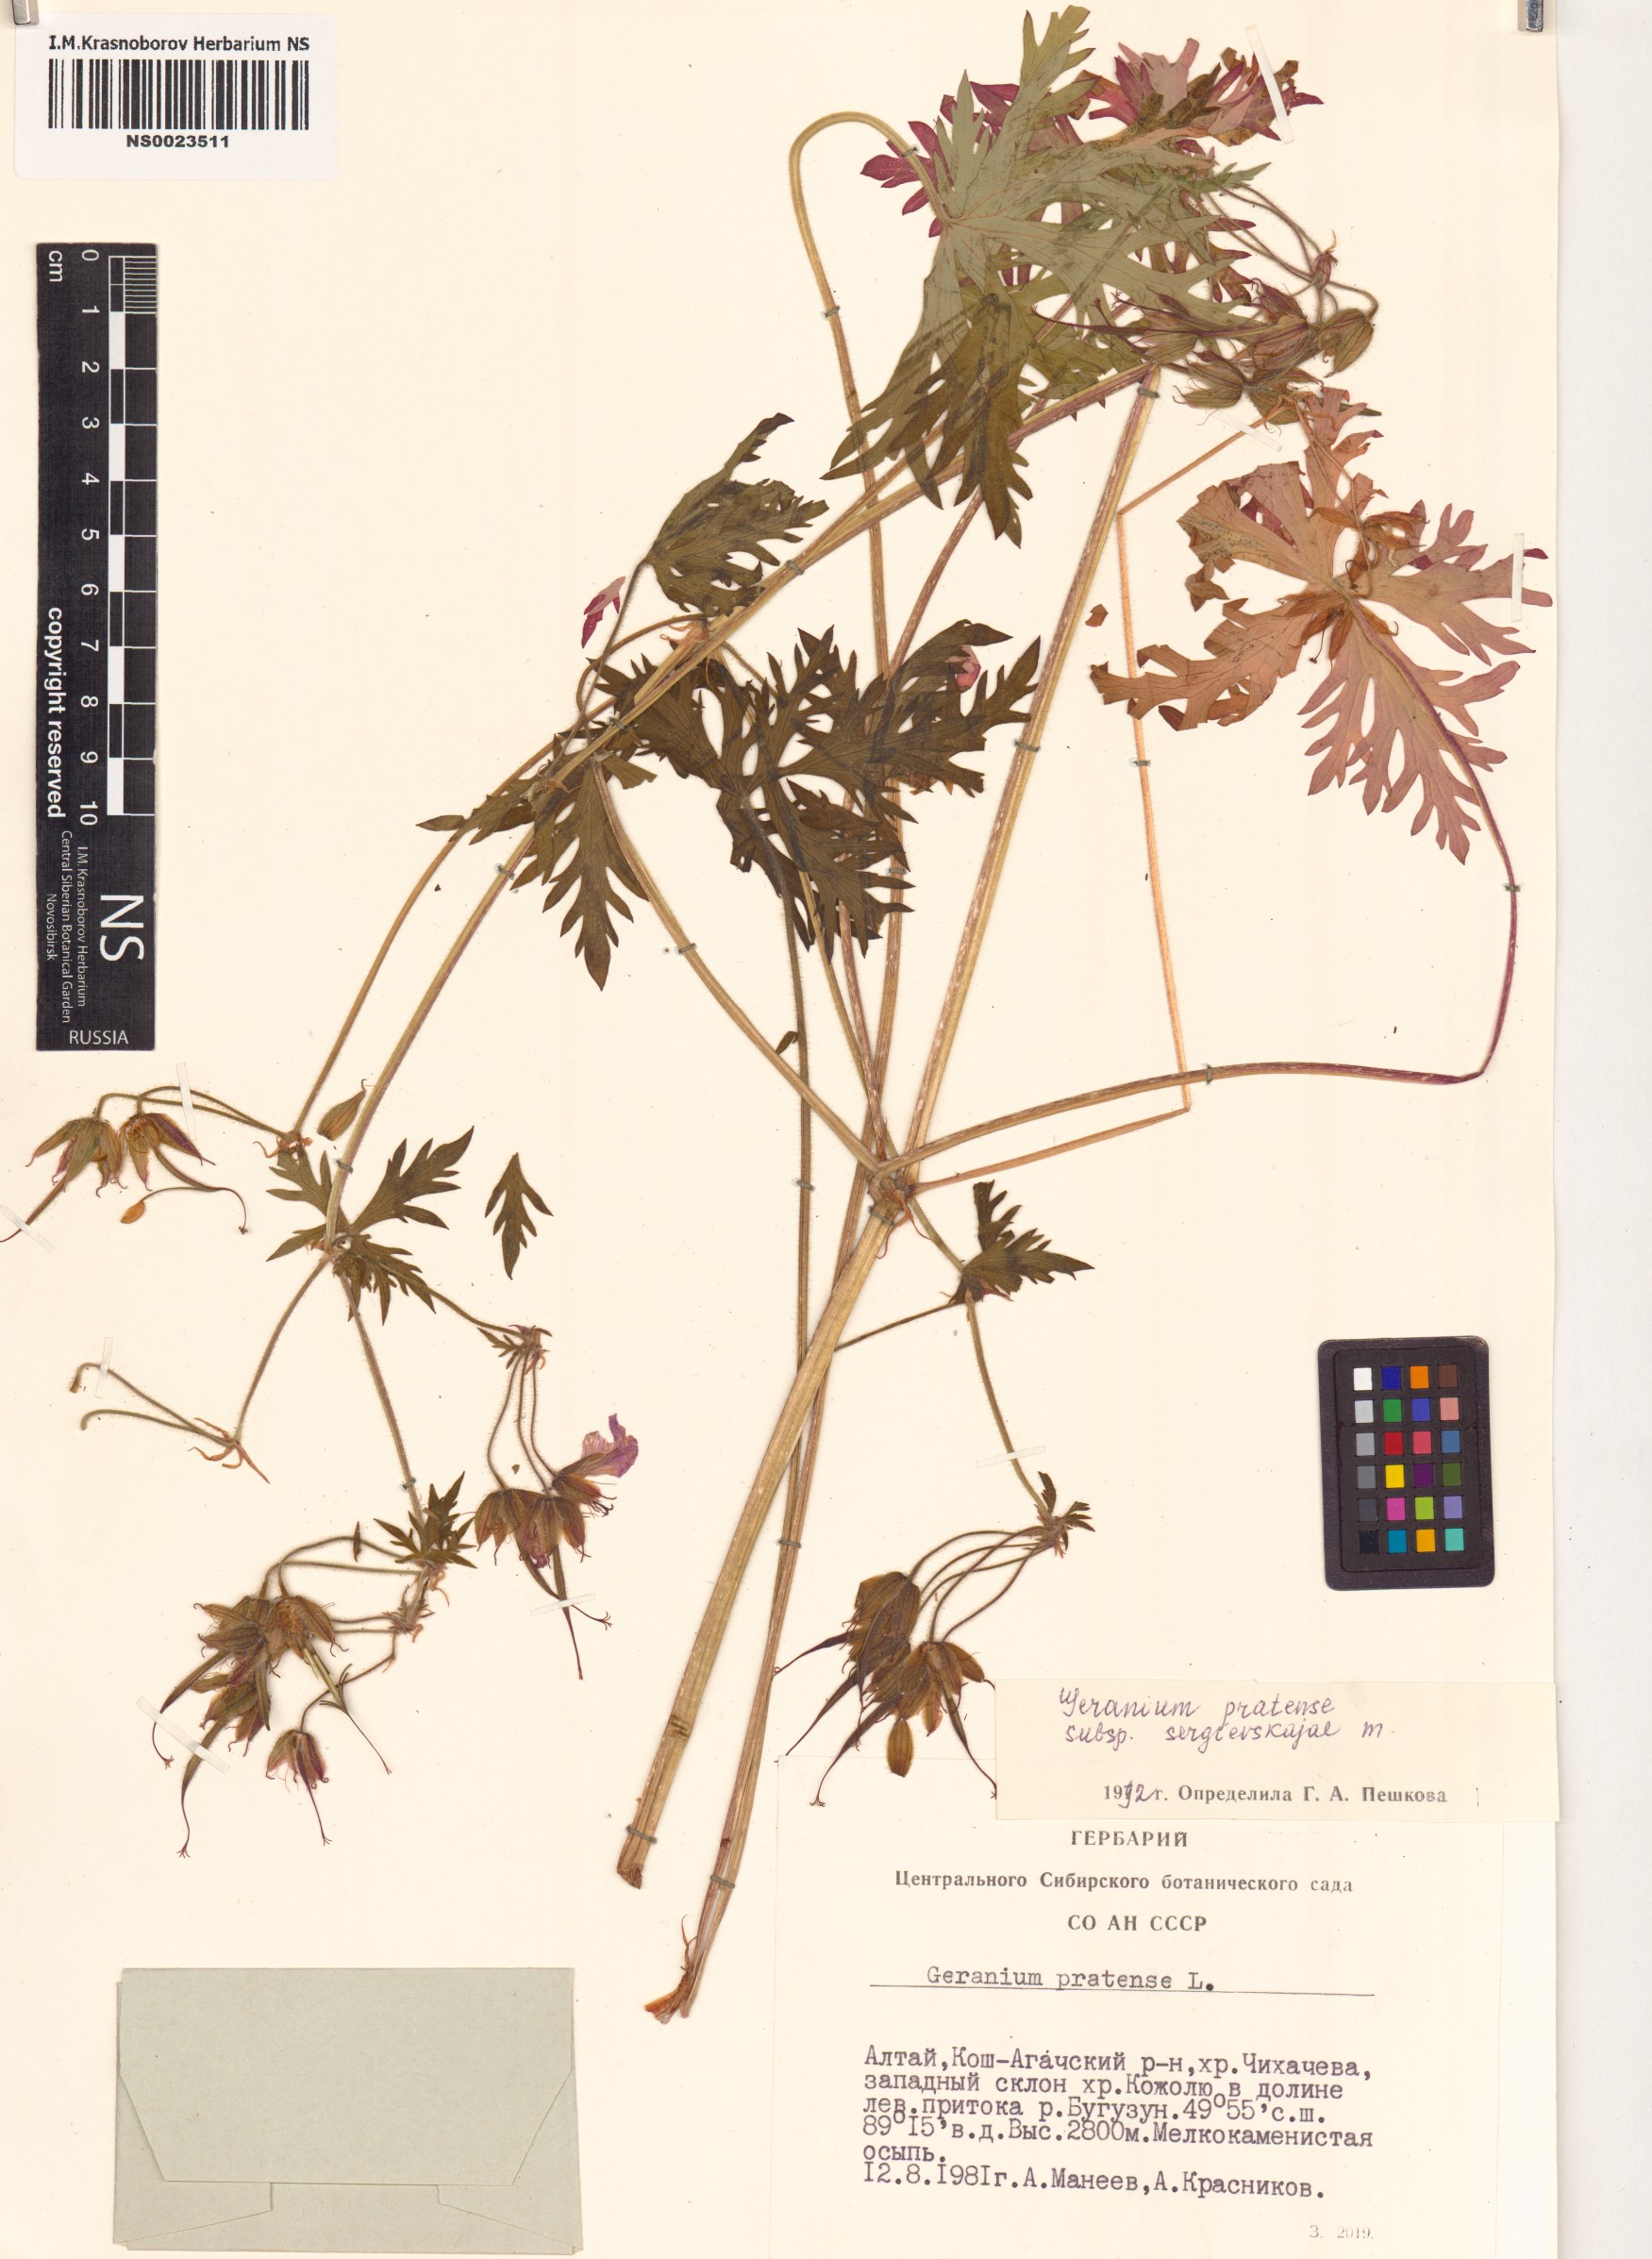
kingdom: Plantae
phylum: Tracheophyta
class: Magnoliopsida
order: Geraniales
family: Geraniaceae
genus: Geranium
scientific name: Geranium pratense
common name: Meadow crane's-bill
